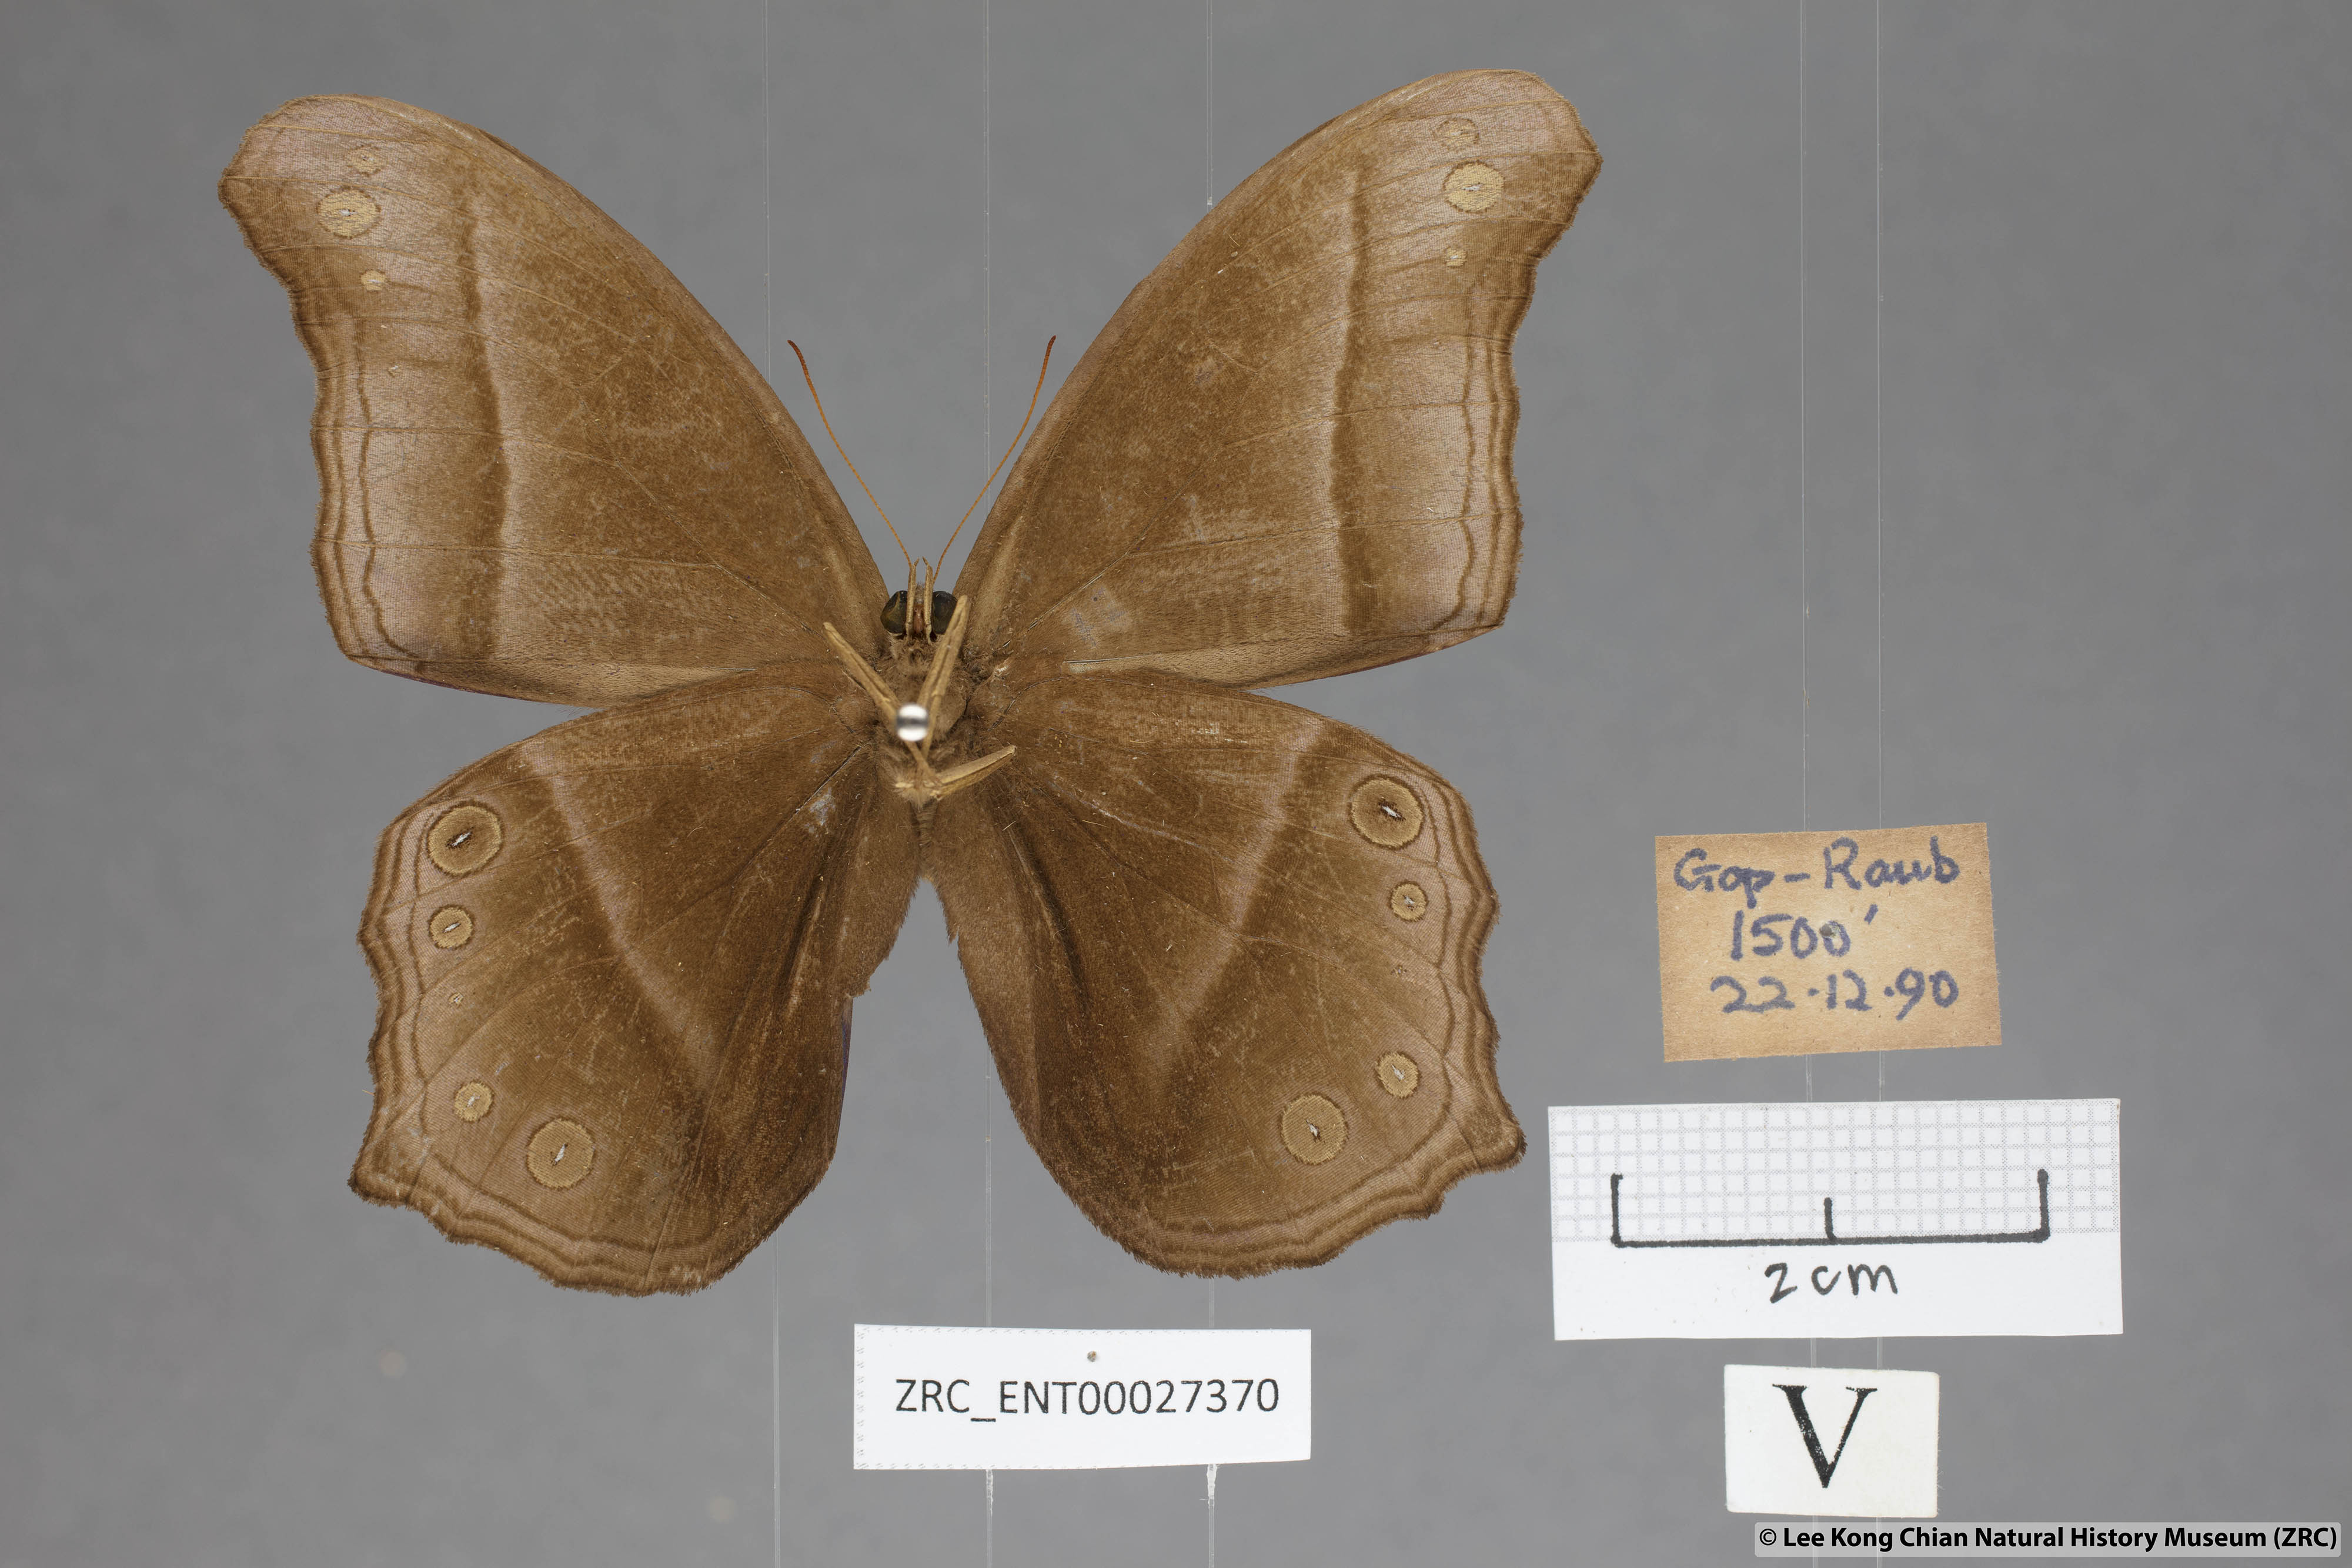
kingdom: Animalia
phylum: Arthropoda
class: Insecta
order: Lepidoptera
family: Nymphalidae
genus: Coelites
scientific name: Coelites epiminthia
